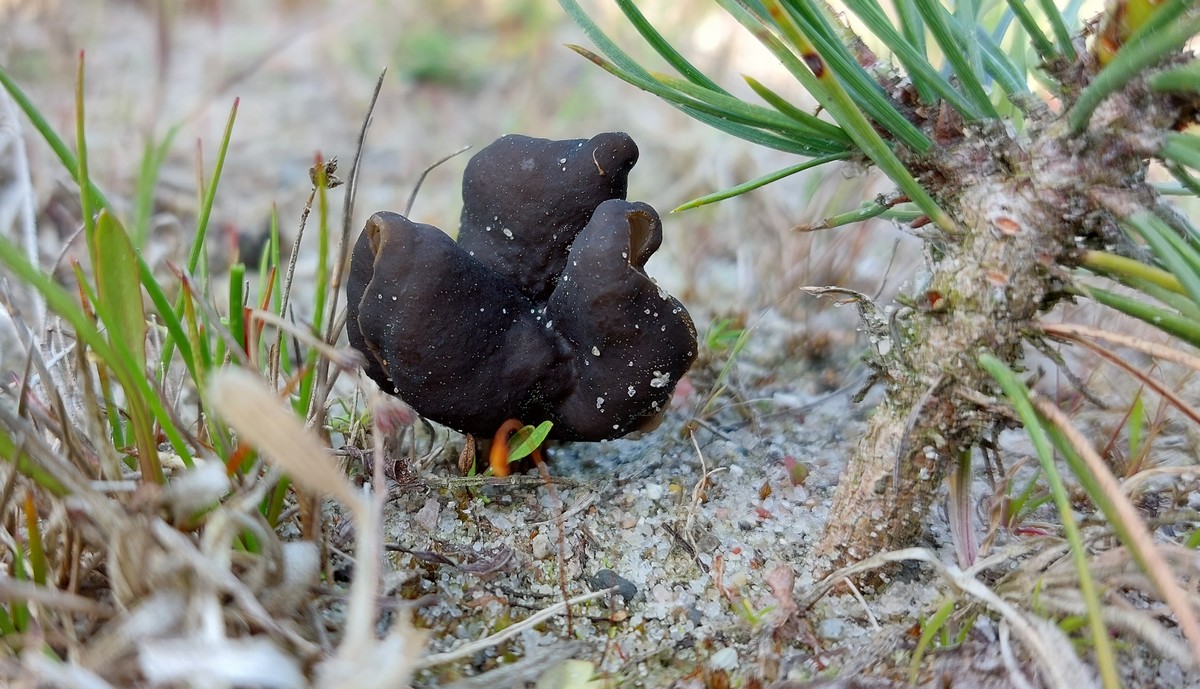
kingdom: Fungi
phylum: Ascomycota
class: Pezizomycetes
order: Pezizales
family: Helvellaceae
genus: Helvella
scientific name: Helvella lacunosa
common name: grubet foldhat
